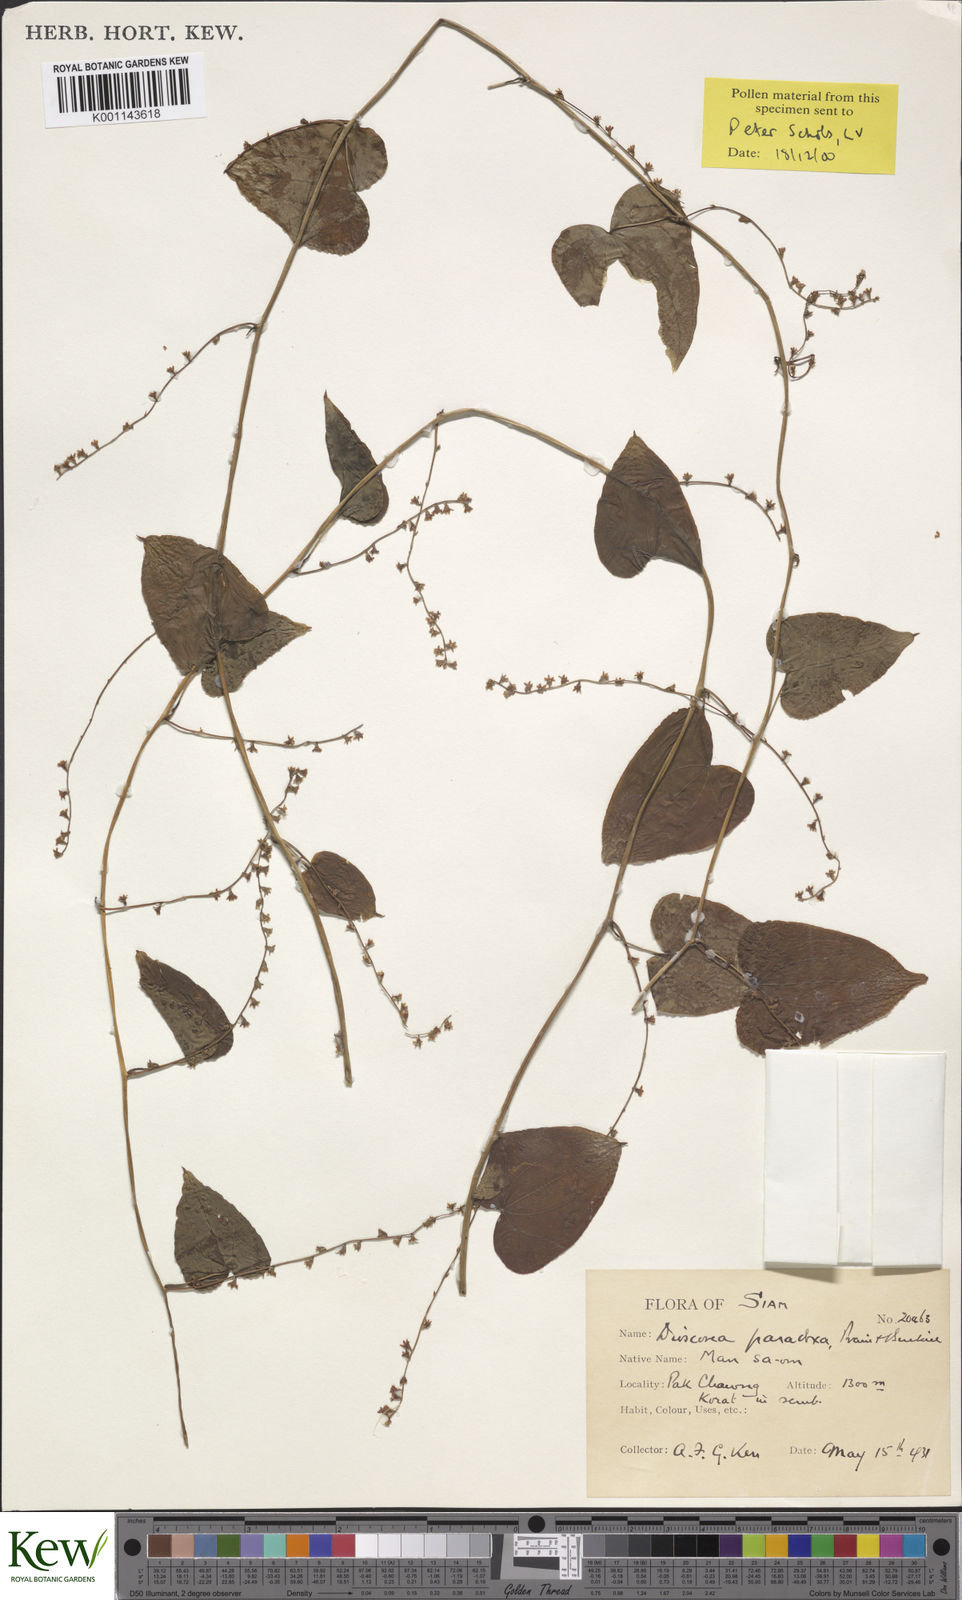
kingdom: Plantae
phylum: Tracheophyta
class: Liliopsida
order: Dioscoreales
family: Dioscoreaceae
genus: Dioscorea
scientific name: Dioscorea paradoxa
